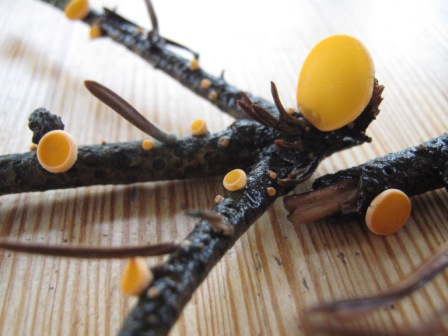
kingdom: Fungi
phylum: Ascomycota
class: Pezizomycetes
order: Pezizales
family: Sarcoscyphaceae
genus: Pithya
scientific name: Pithya vulgaris
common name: stor dukatbæger
